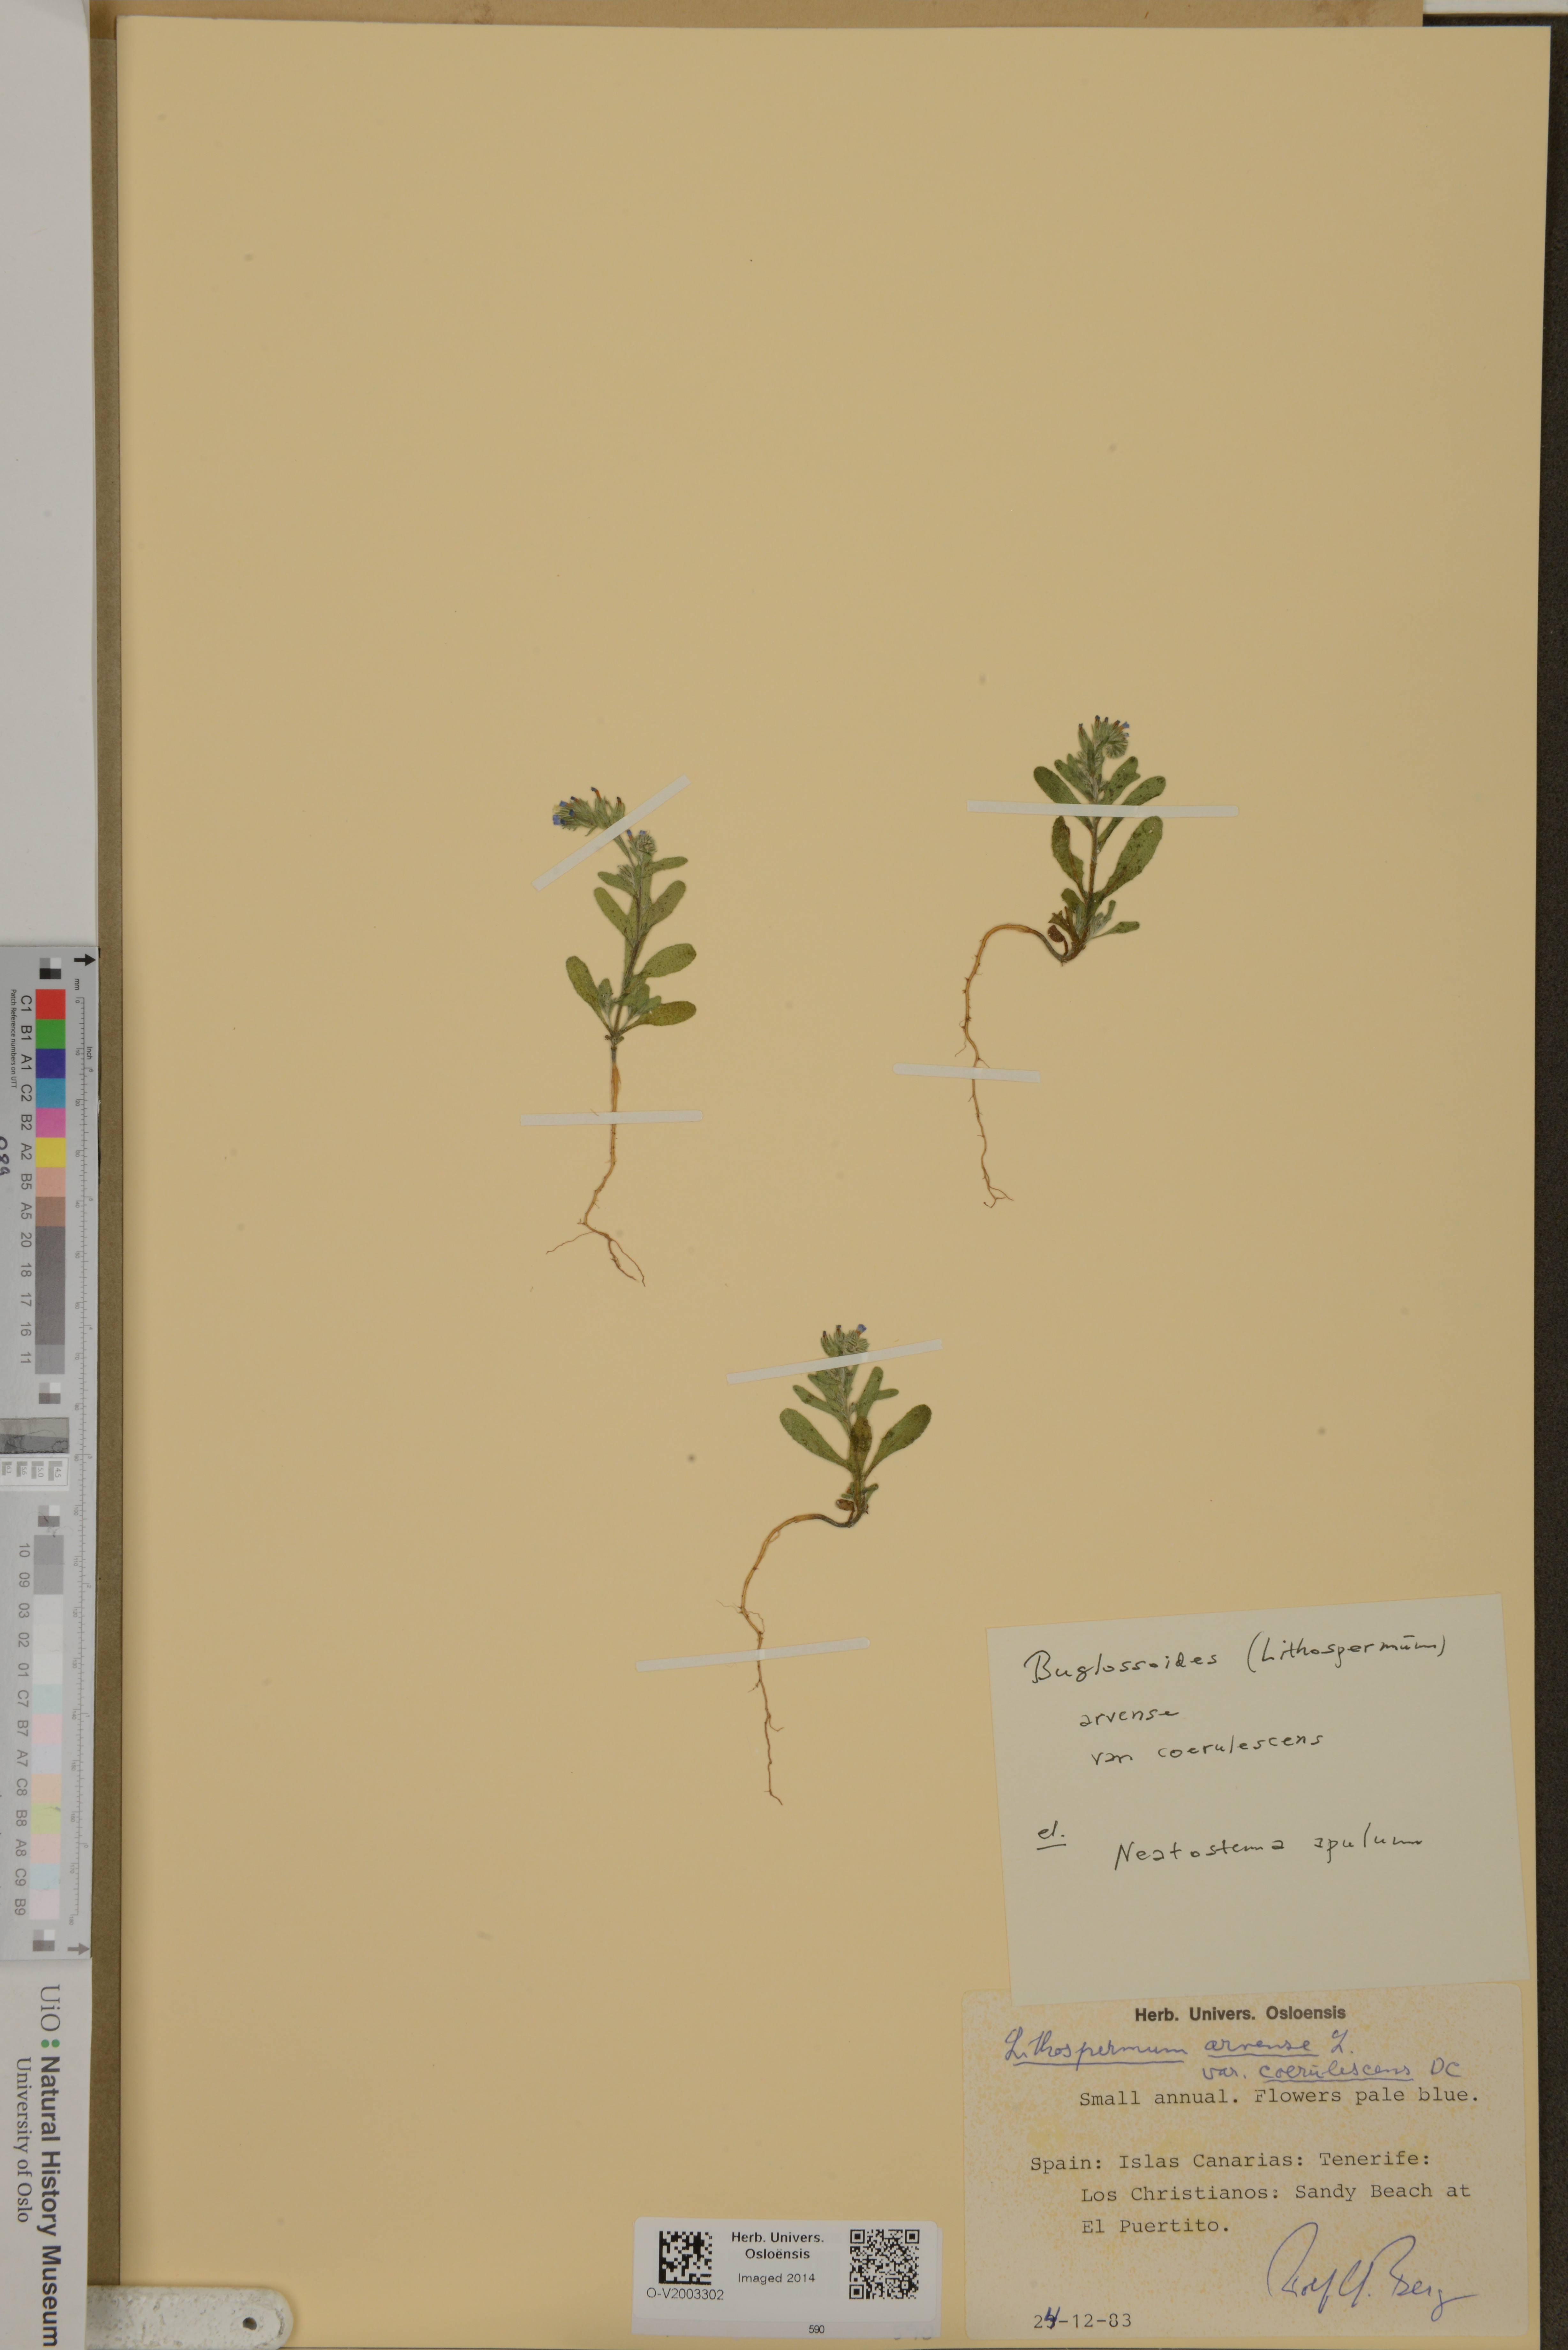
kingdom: Plantae
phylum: Tracheophyta
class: Magnoliopsida
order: Boraginales
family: Boraginaceae
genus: Buglossoides
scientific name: Buglossoides arvensis
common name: Corn gromwell
